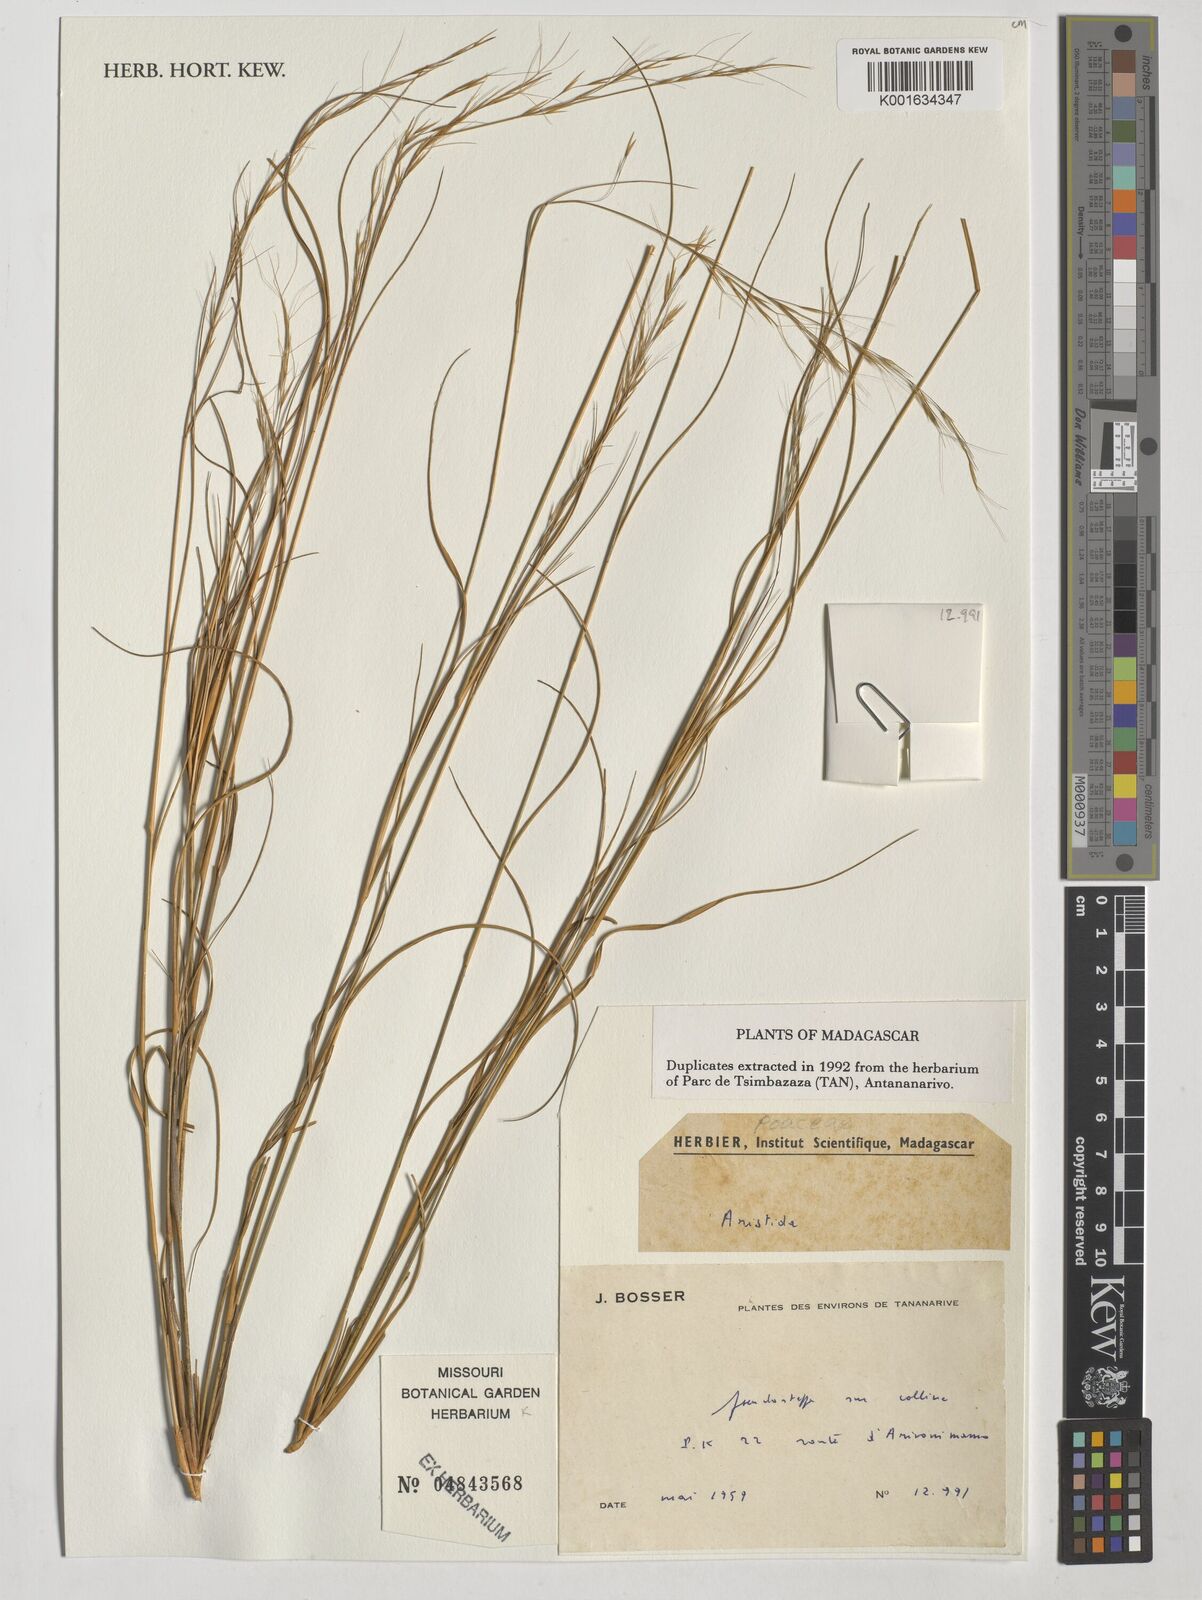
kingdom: Plantae
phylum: Tracheophyta
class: Liliopsida
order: Poales
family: Poaceae
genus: Aristida
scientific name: Aristida
